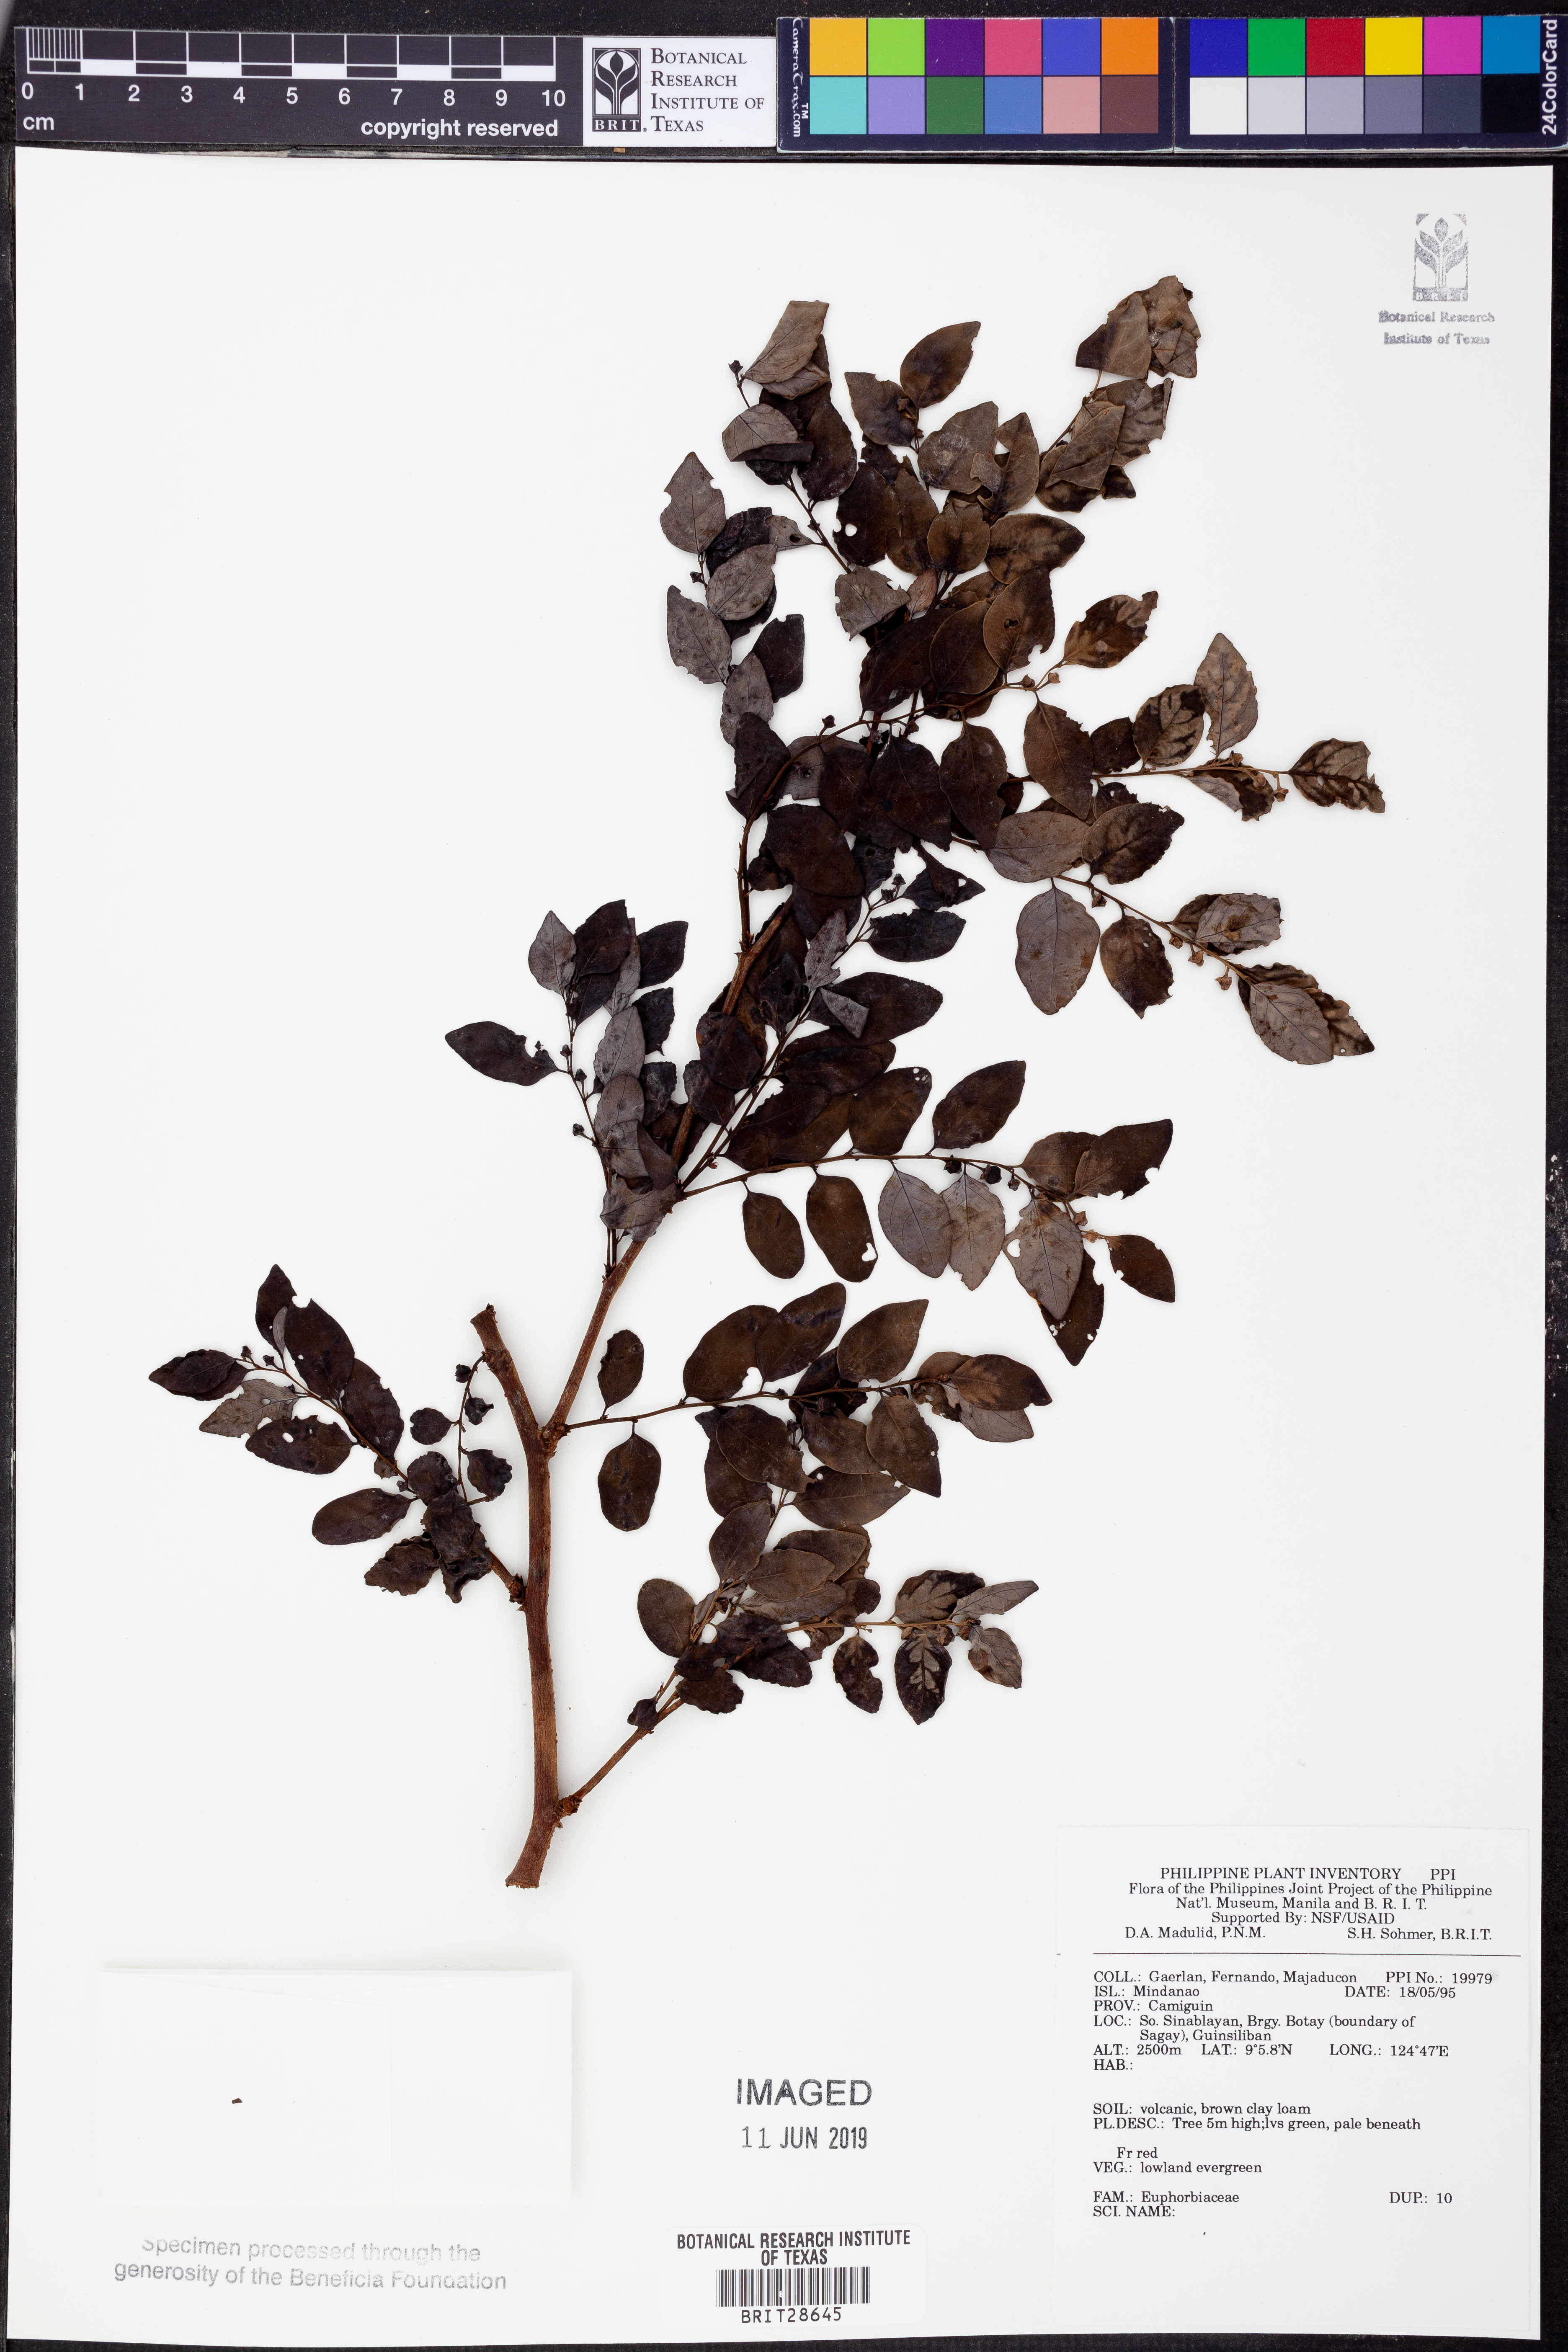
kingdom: Plantae
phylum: Tracheophyta
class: Magnoliopsida
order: Malpighiales
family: Euphorbiaceae
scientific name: Euphorbiaceae
